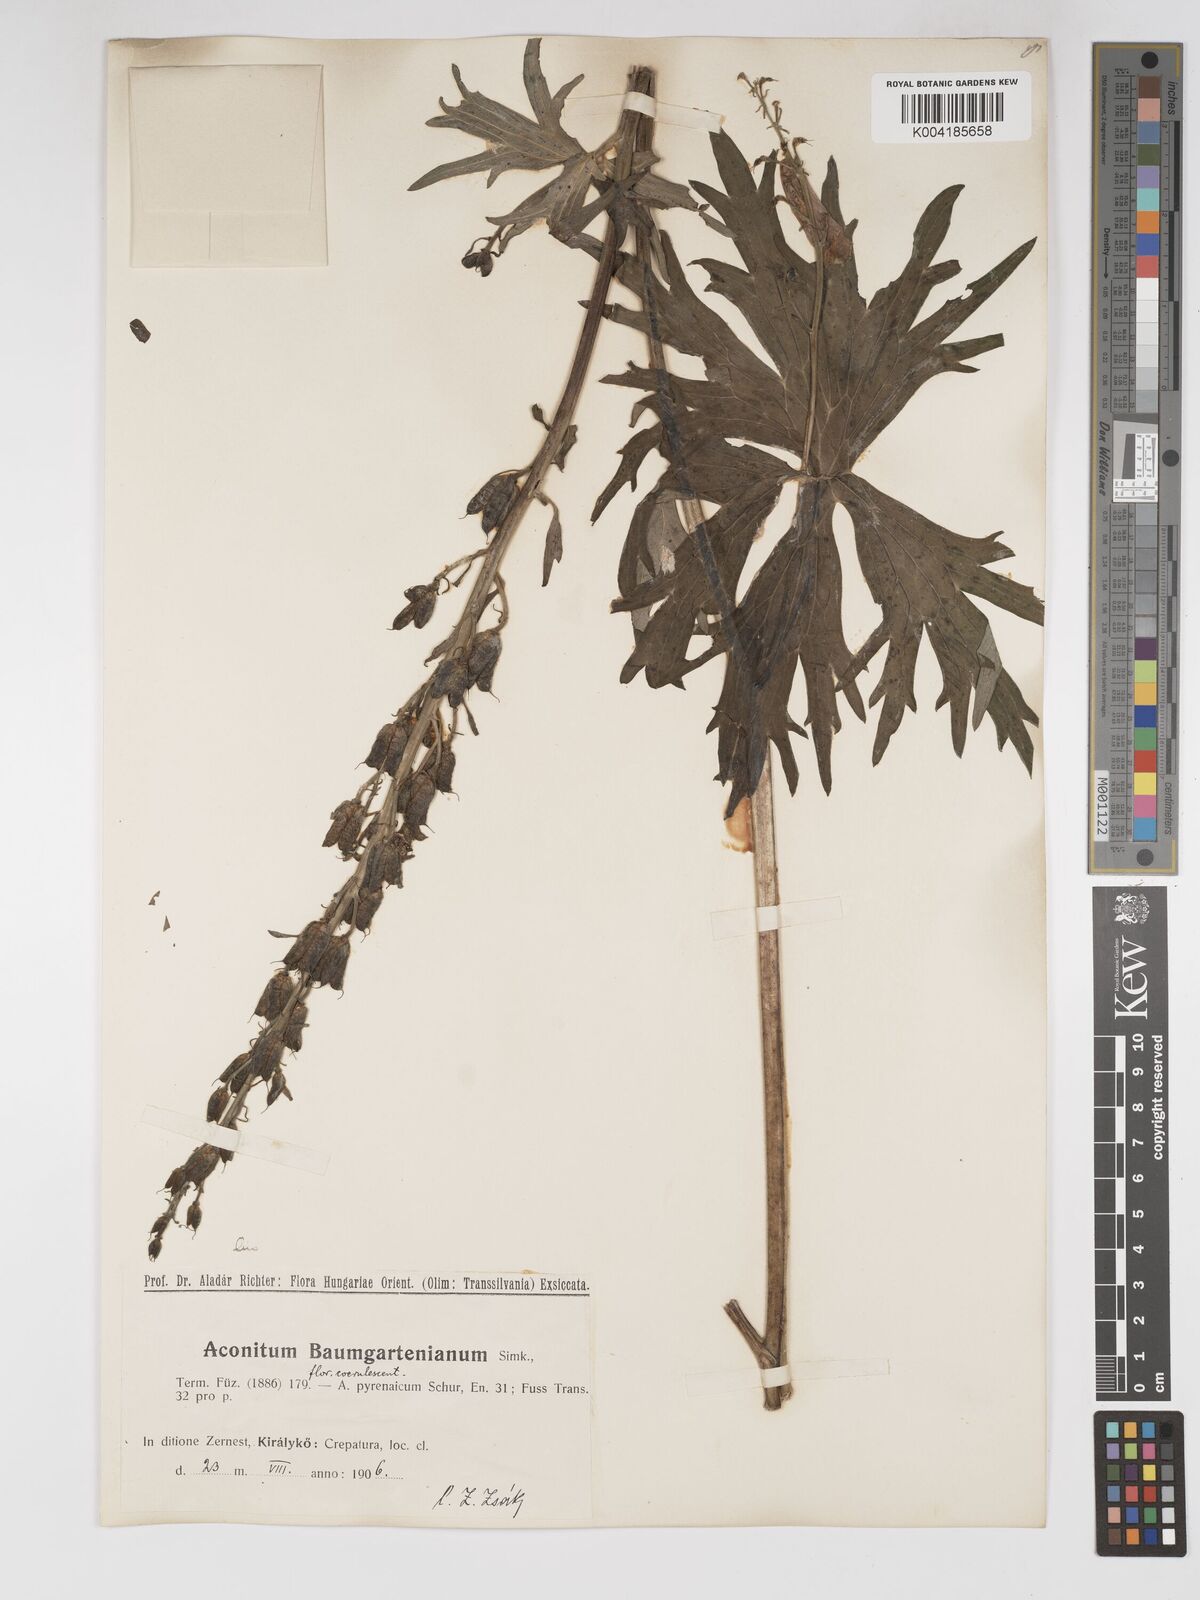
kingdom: Plantae
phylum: Tracheophyta
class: Magnoliopsida
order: Ranunculales
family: Ranunculaceae
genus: Aconitum
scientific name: Aconitum lycoctonum
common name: Wolf's-bane
